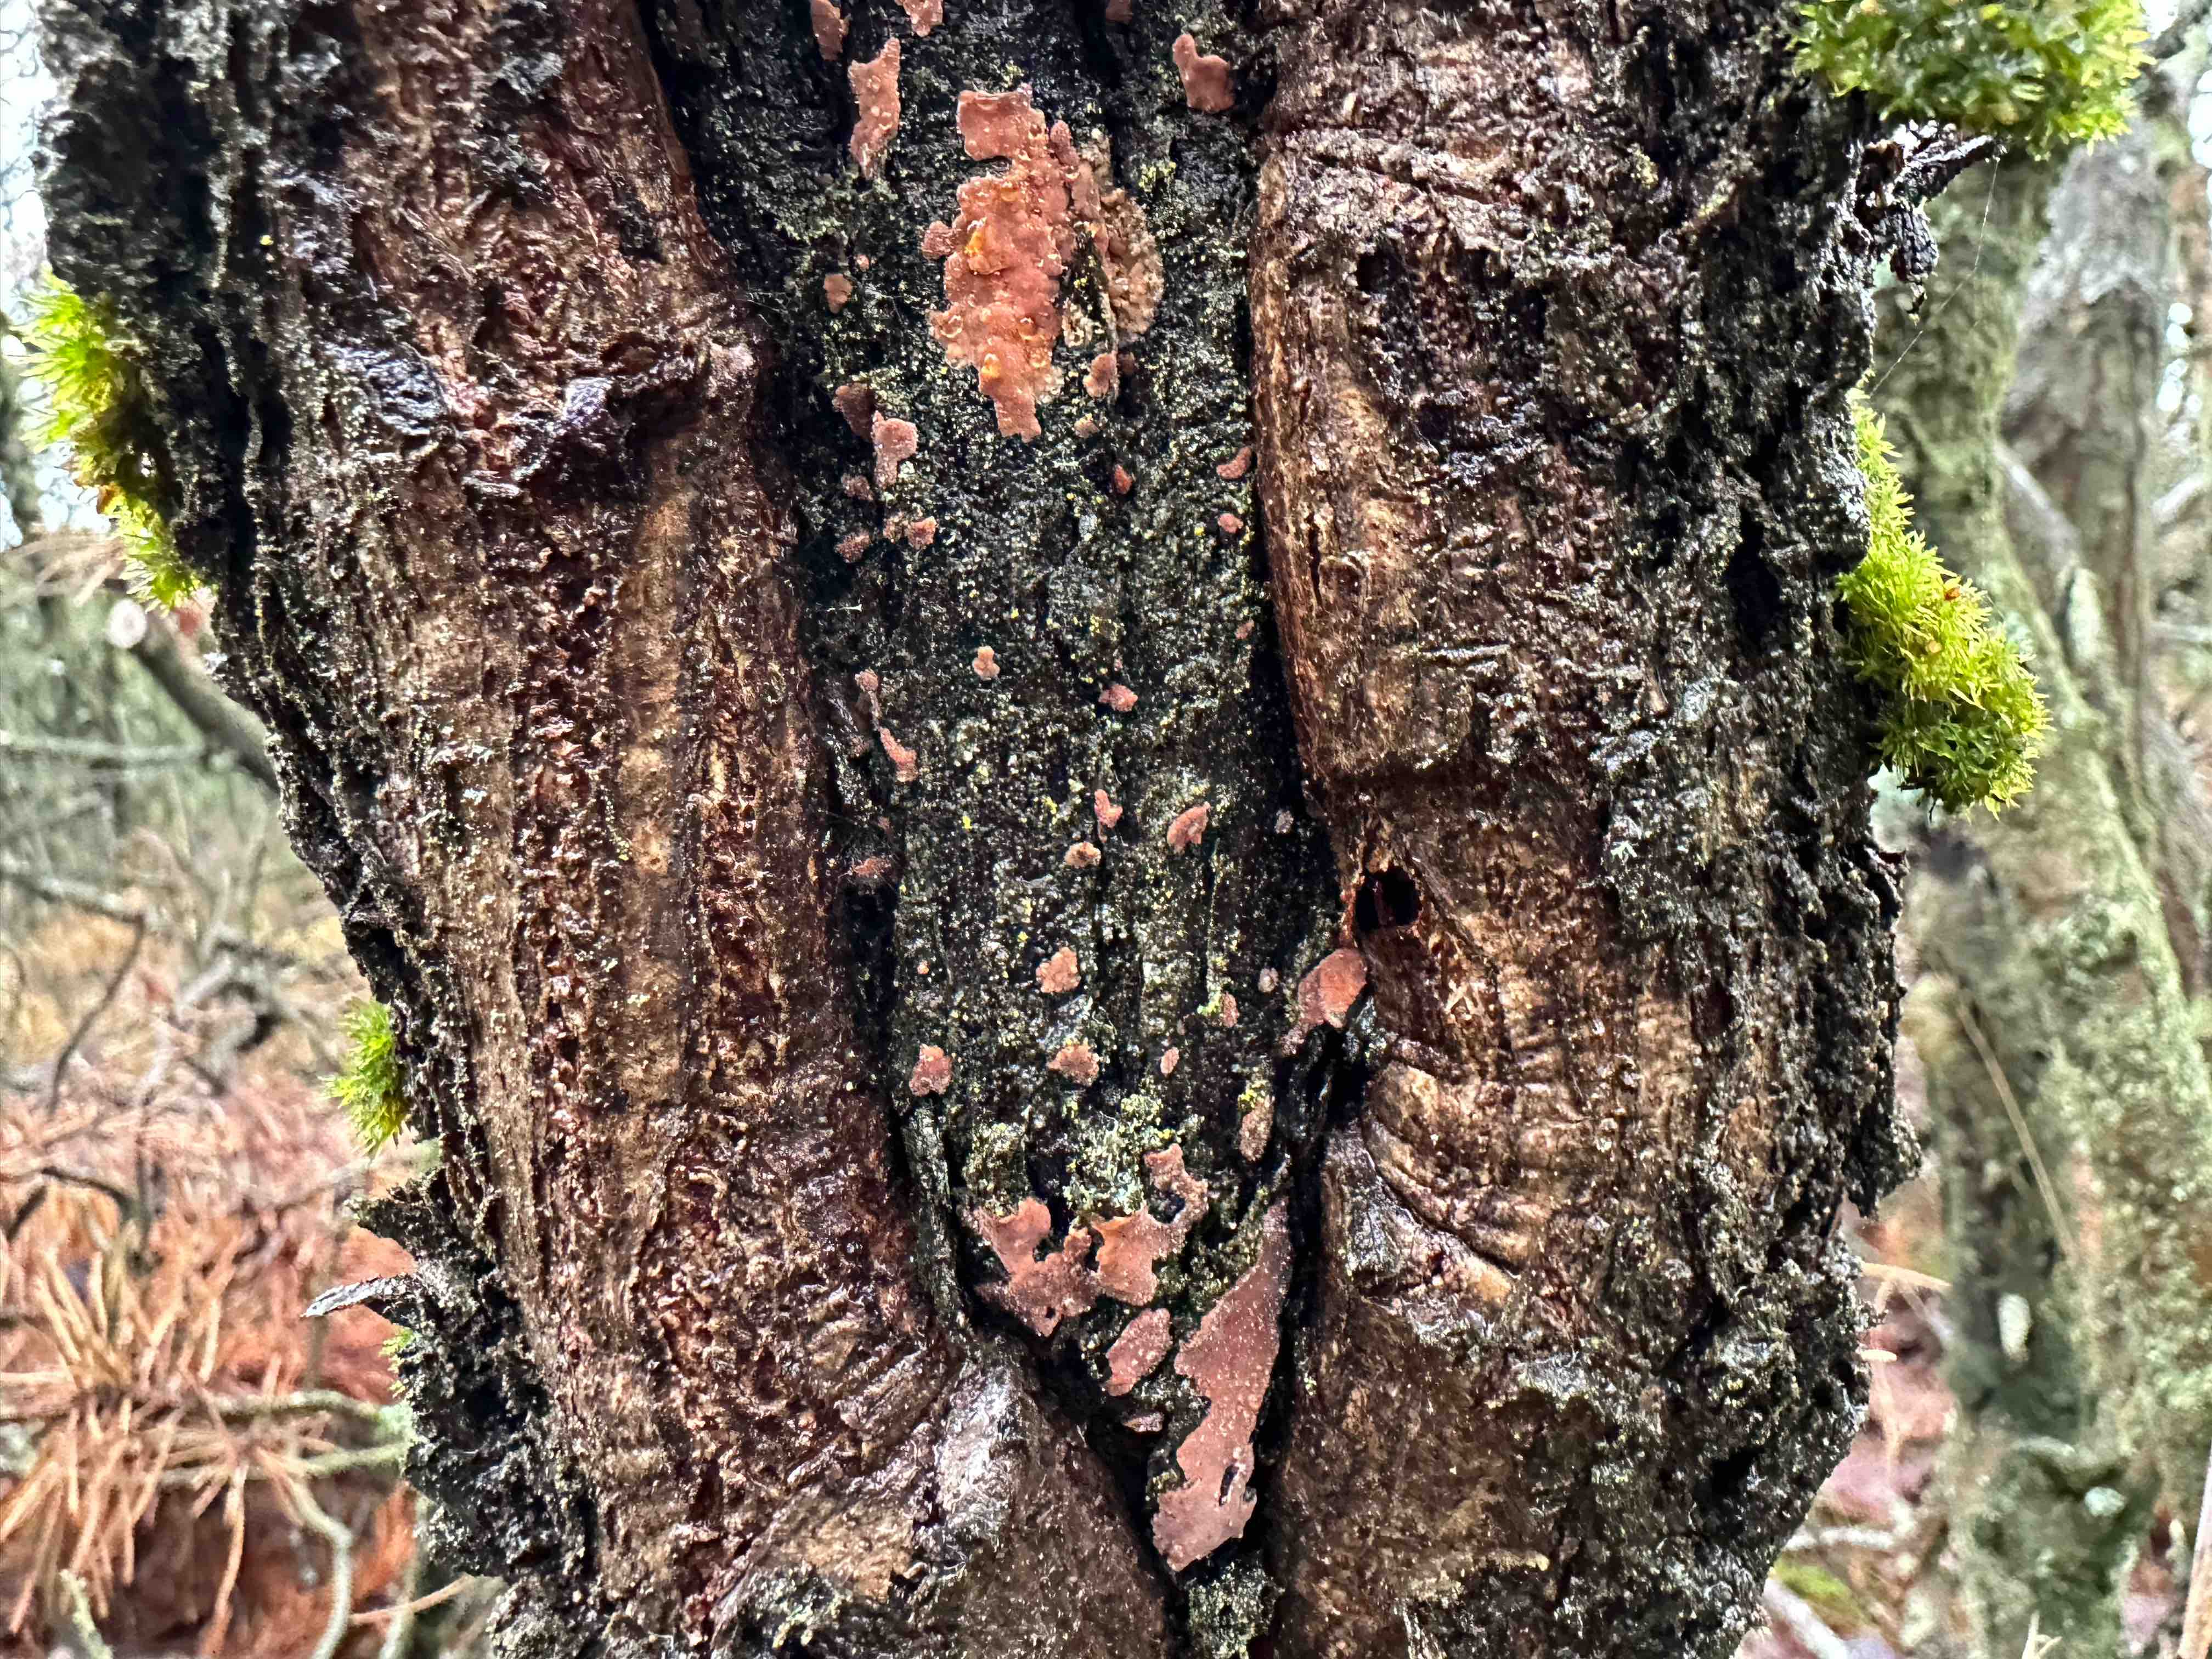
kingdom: Fungi
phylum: Basidiomycota
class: Agaricomycetes
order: Russulales
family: Peniophoraceae
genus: Peniophora
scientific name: Peniophora incarnata
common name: laksefarvet voksskind
